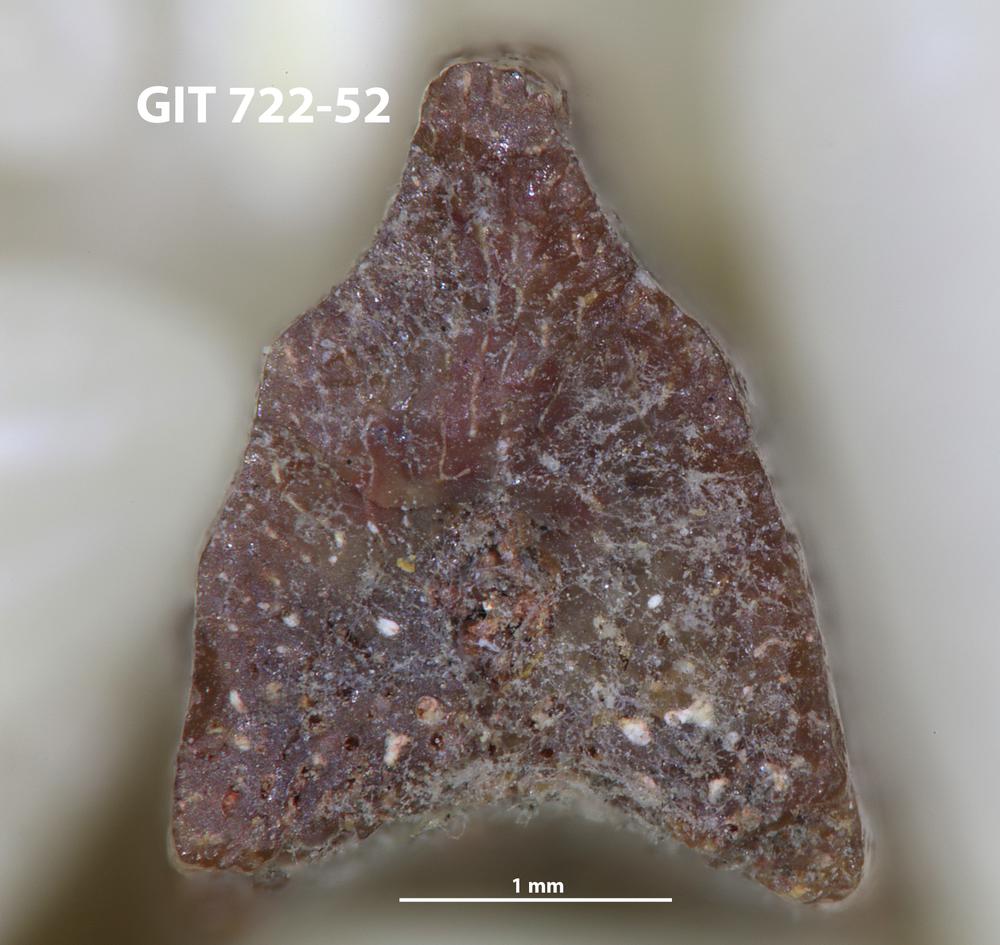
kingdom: Animalia
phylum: Chordata
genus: Devononchus
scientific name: Devononchus concinnus
